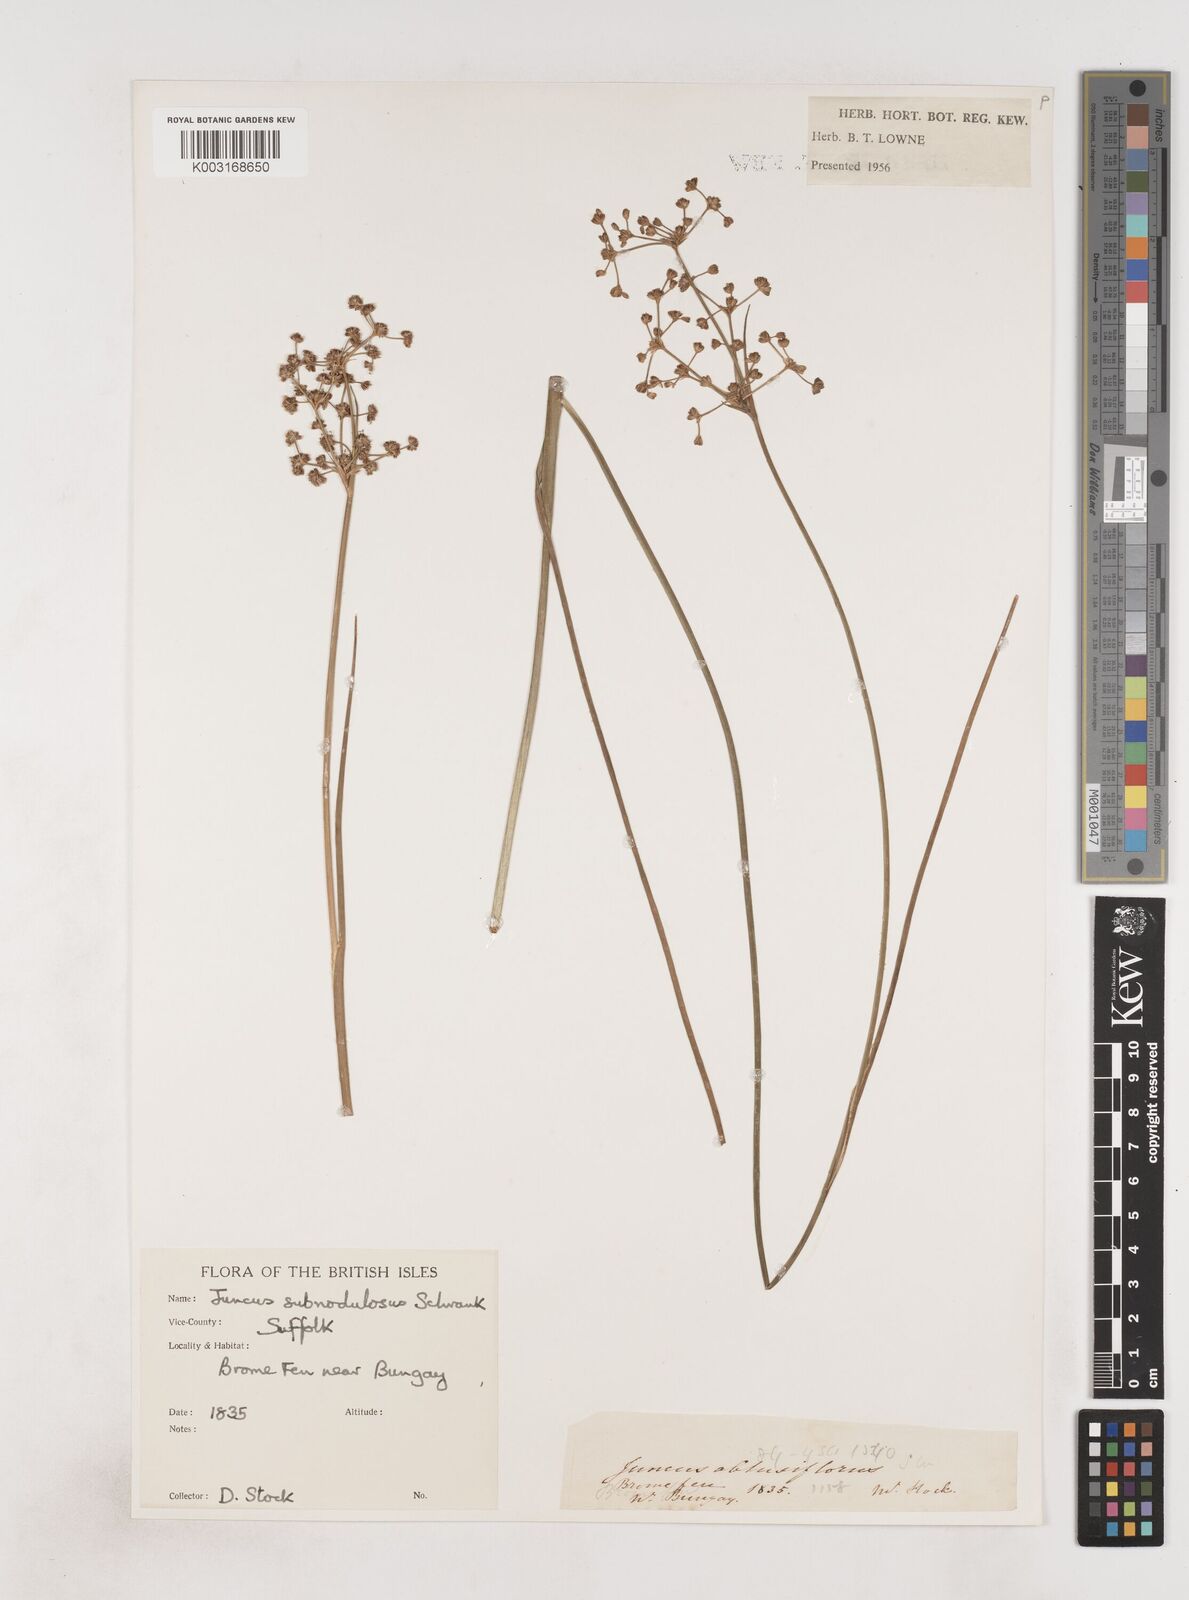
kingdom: Plantae
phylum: Tracheophyta
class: Liliopsida
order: Poales
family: Juncaceae
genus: Juncus
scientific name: Juncus subnodulosus
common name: Blunt-flowered rush
